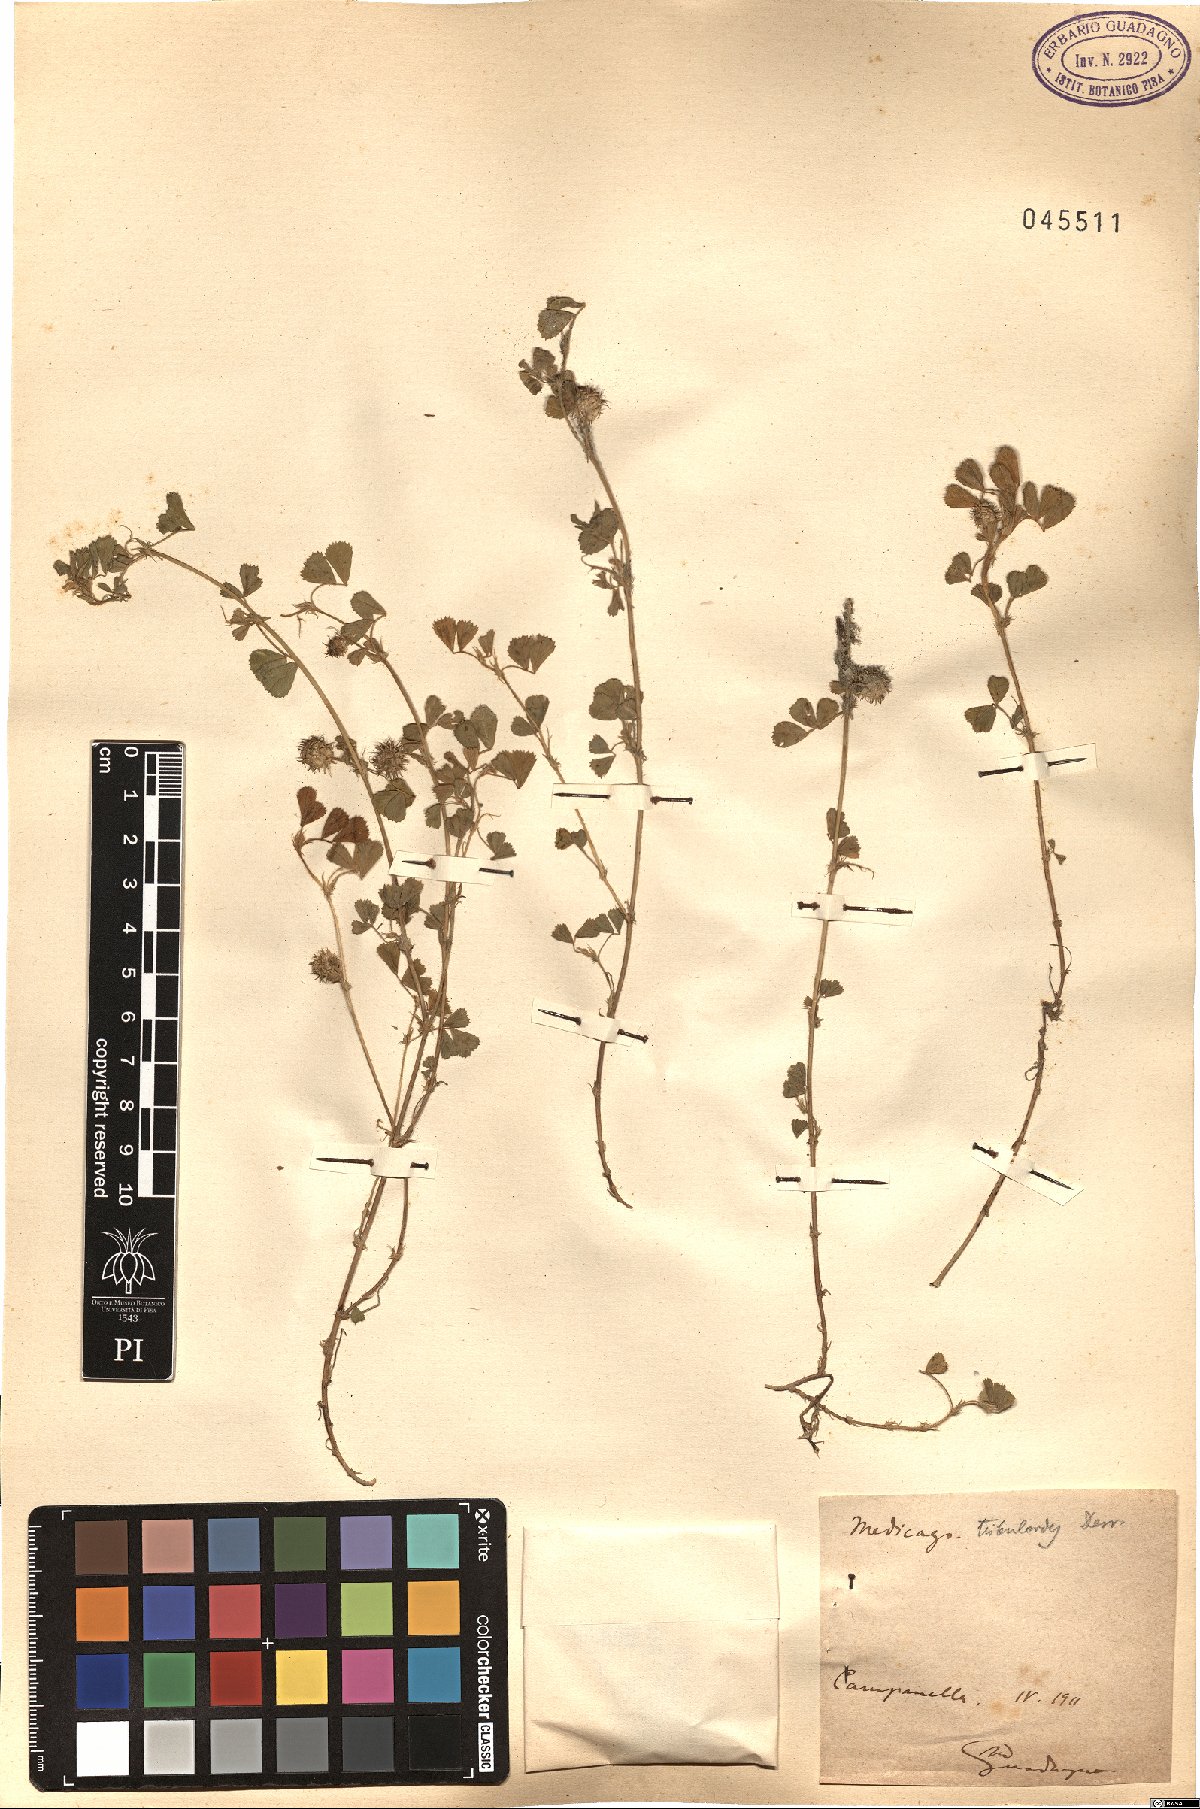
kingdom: Plantae
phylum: Tracheophyta
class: Magnoliopsida
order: Fabales
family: Fabaceae
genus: Medicago
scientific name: Medicago truncatula
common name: Strong-spined medick
